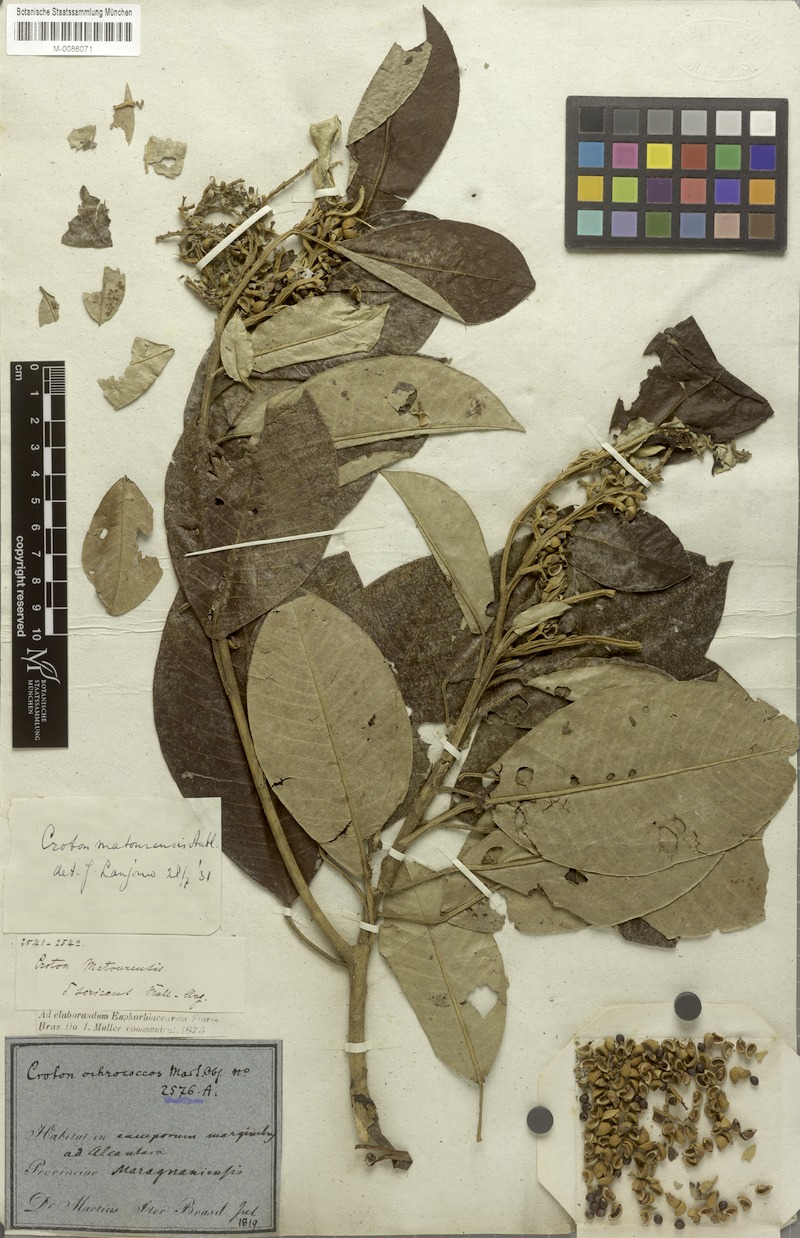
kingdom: Plantae
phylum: Tracheophyta
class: Magnoliopsida
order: Malpighiales
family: Euphorbiaceae
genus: Croton
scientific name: Croton matourensis
